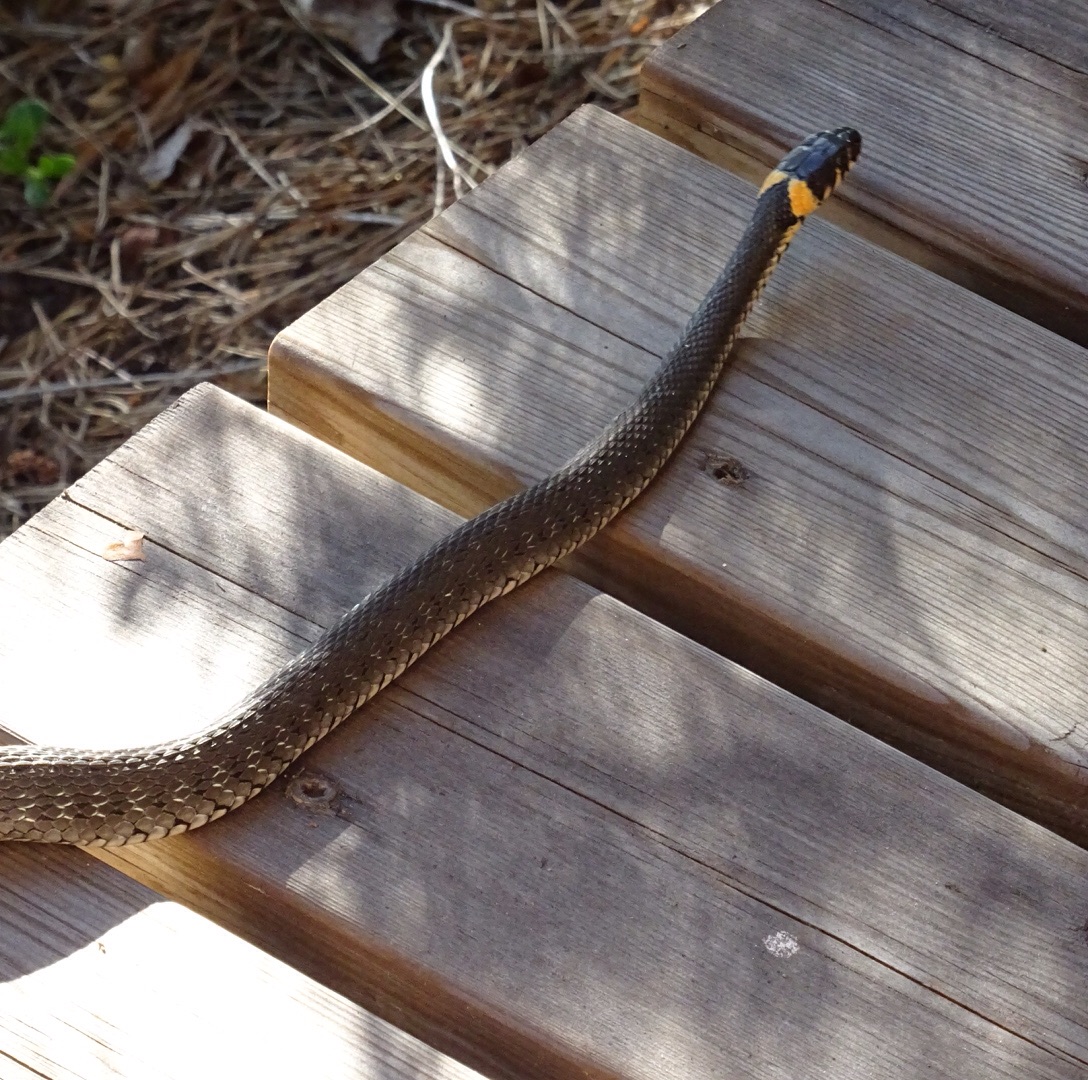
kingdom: Animalia
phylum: Chordata
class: Squamata
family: Colubridae
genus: Natrix
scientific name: Natrix natrix
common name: Grass snake
